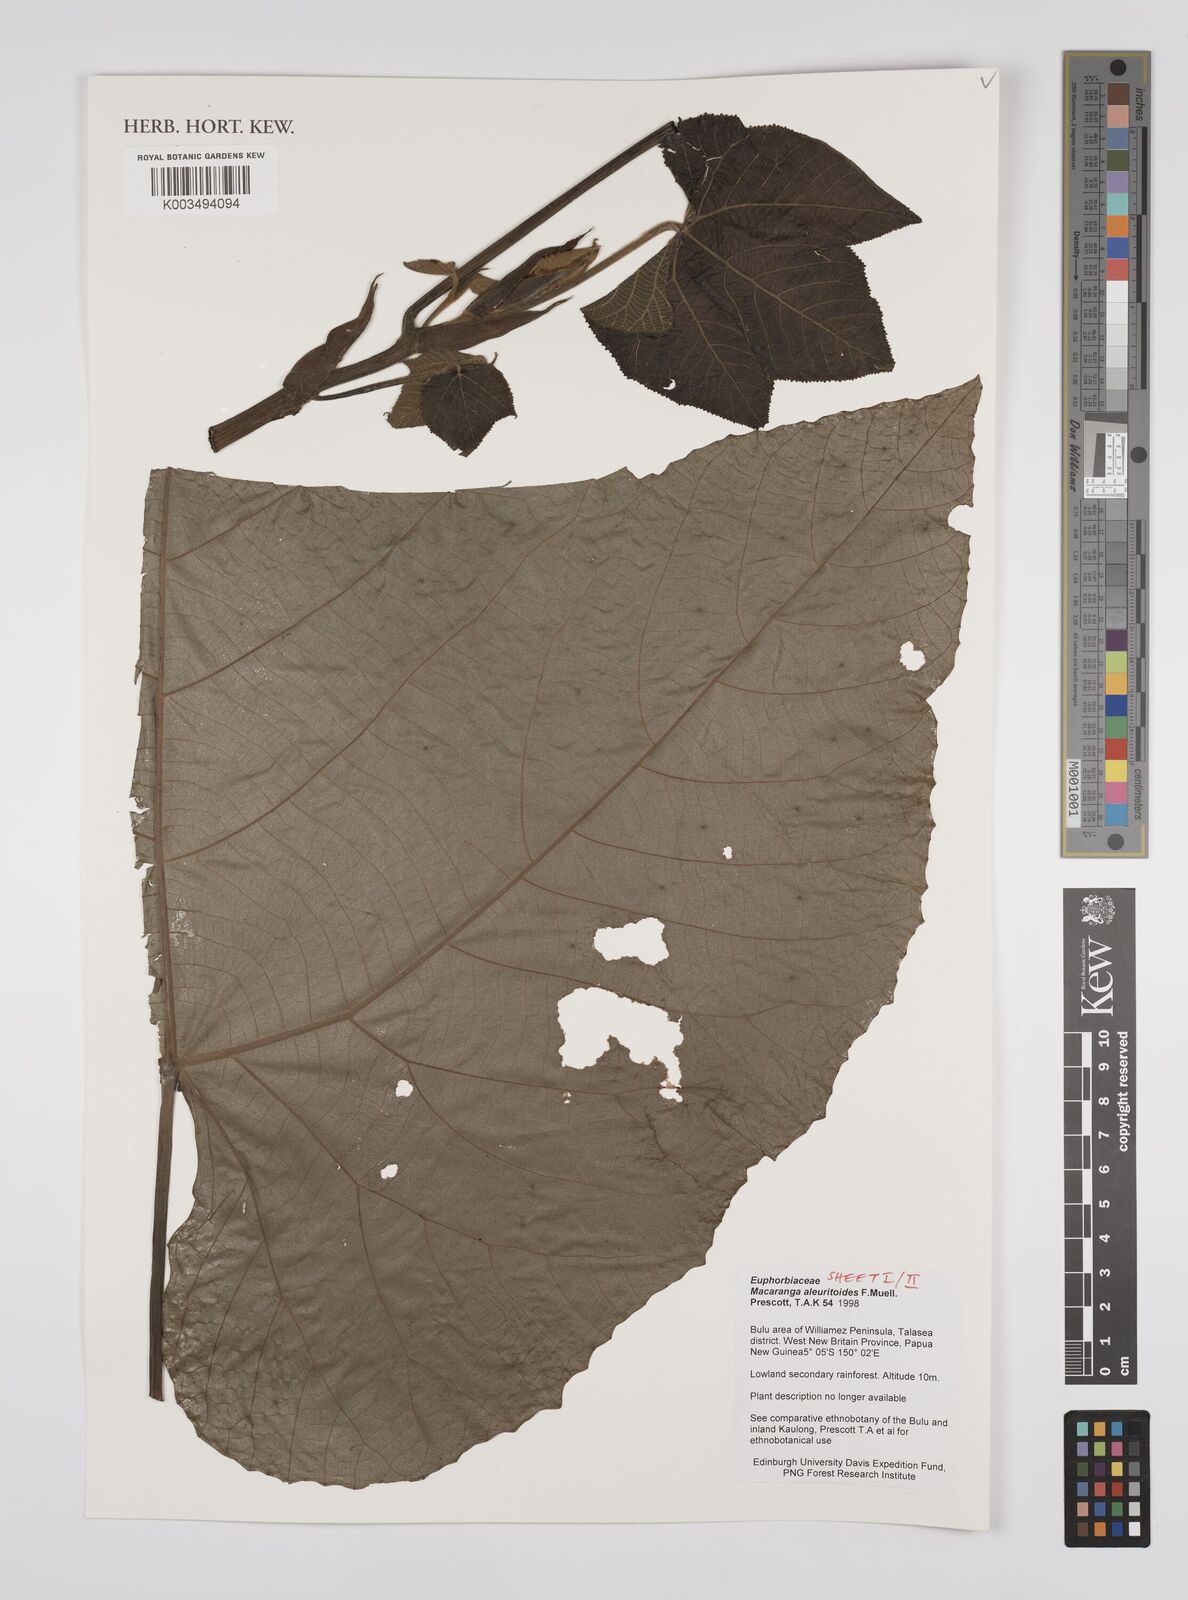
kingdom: Plantae
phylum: Tracheophyta
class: Magnoliopsida
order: Malpighiales
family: Euphorbiaceae
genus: Macaranga
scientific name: Macaranga aleuritoides
